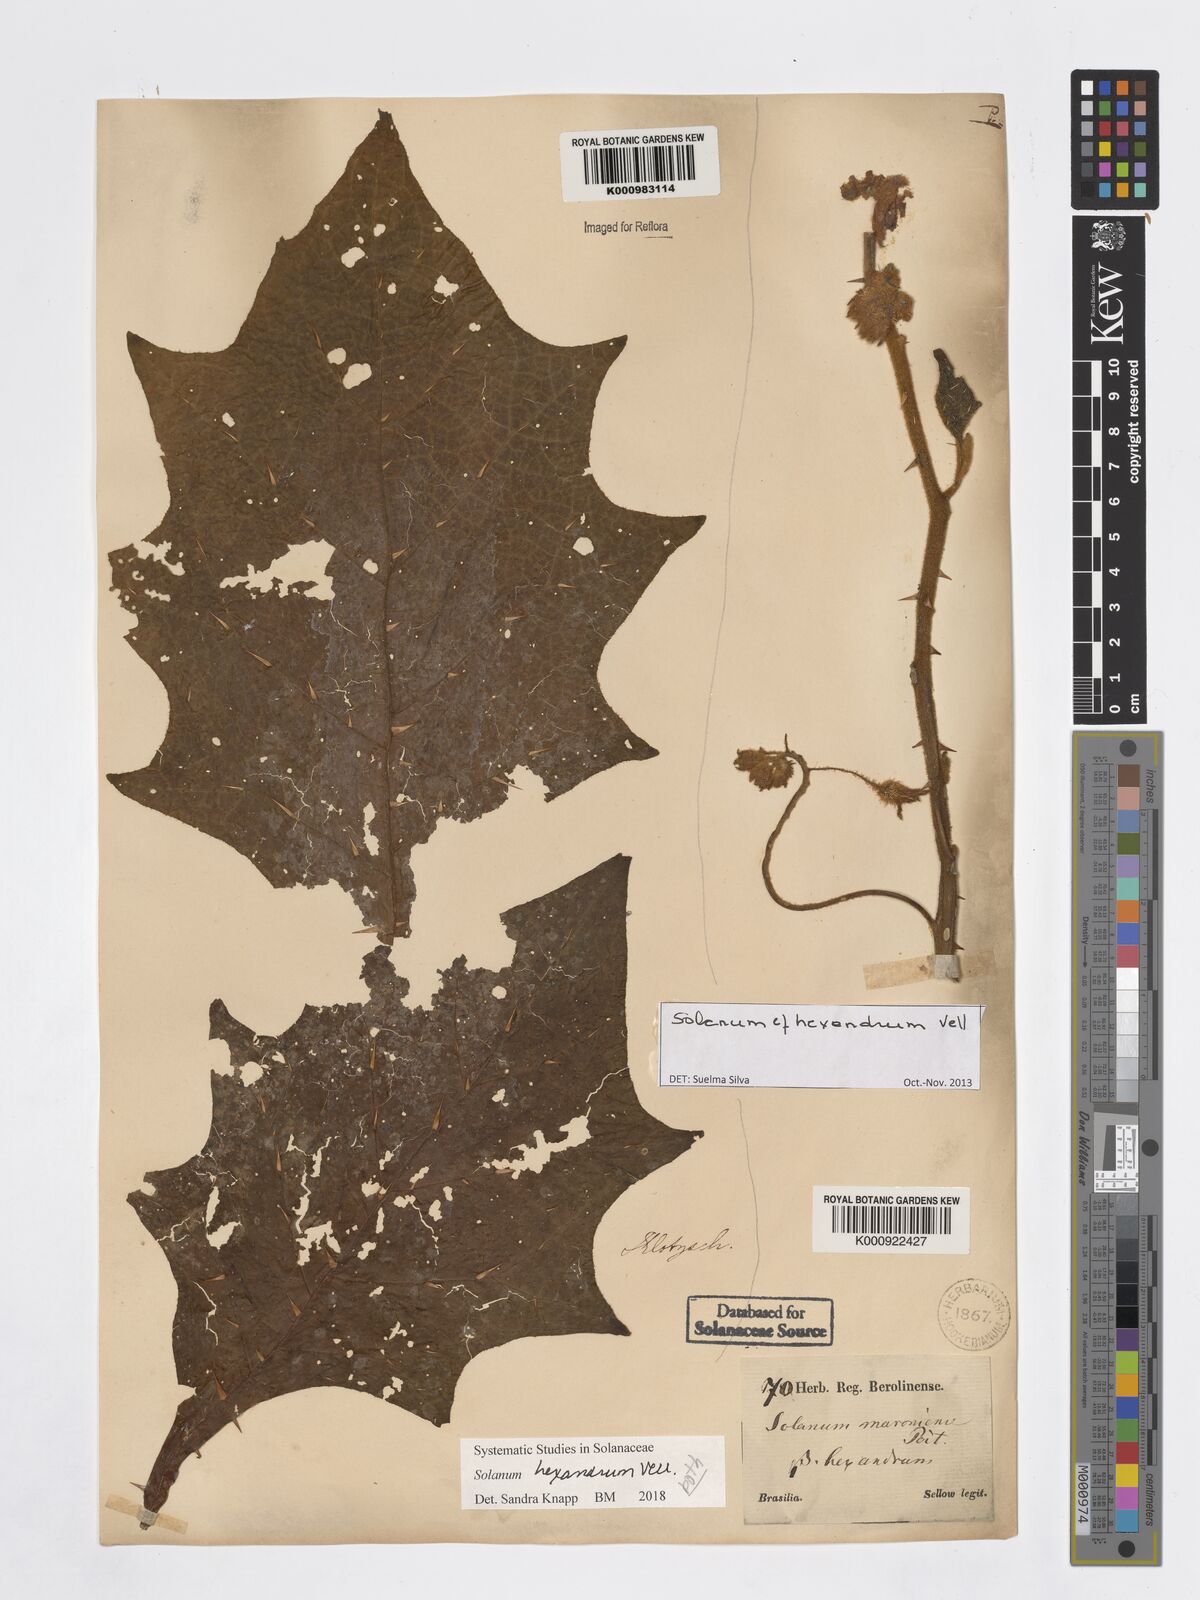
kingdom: Plantae
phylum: Tracheophyta
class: Magnoliopsida
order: Solanales
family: Solanaceae
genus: Solanum
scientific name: Solanum hexandrum
